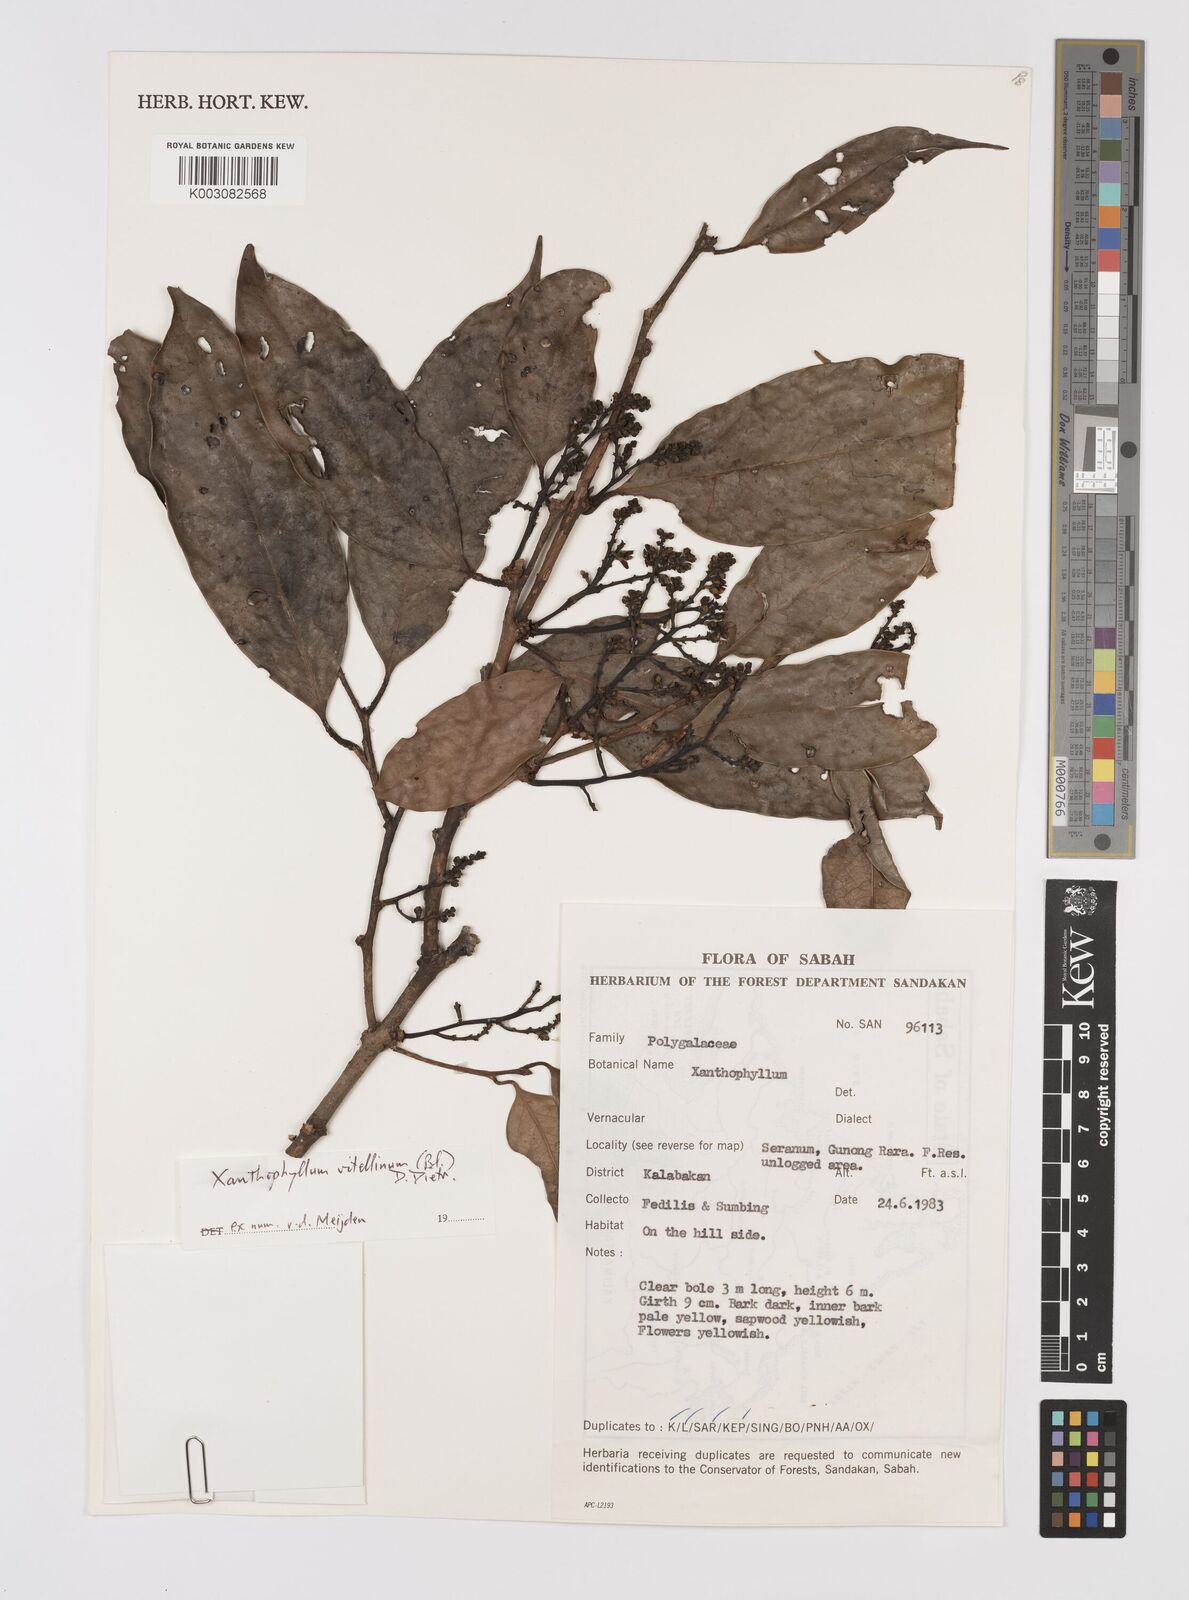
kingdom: Plantae
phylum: Tracheophyta
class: Magnoliopsida
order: Fabales
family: Polygalaceae
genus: Xanthophyllum
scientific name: Xanthophyllum vitellinum
